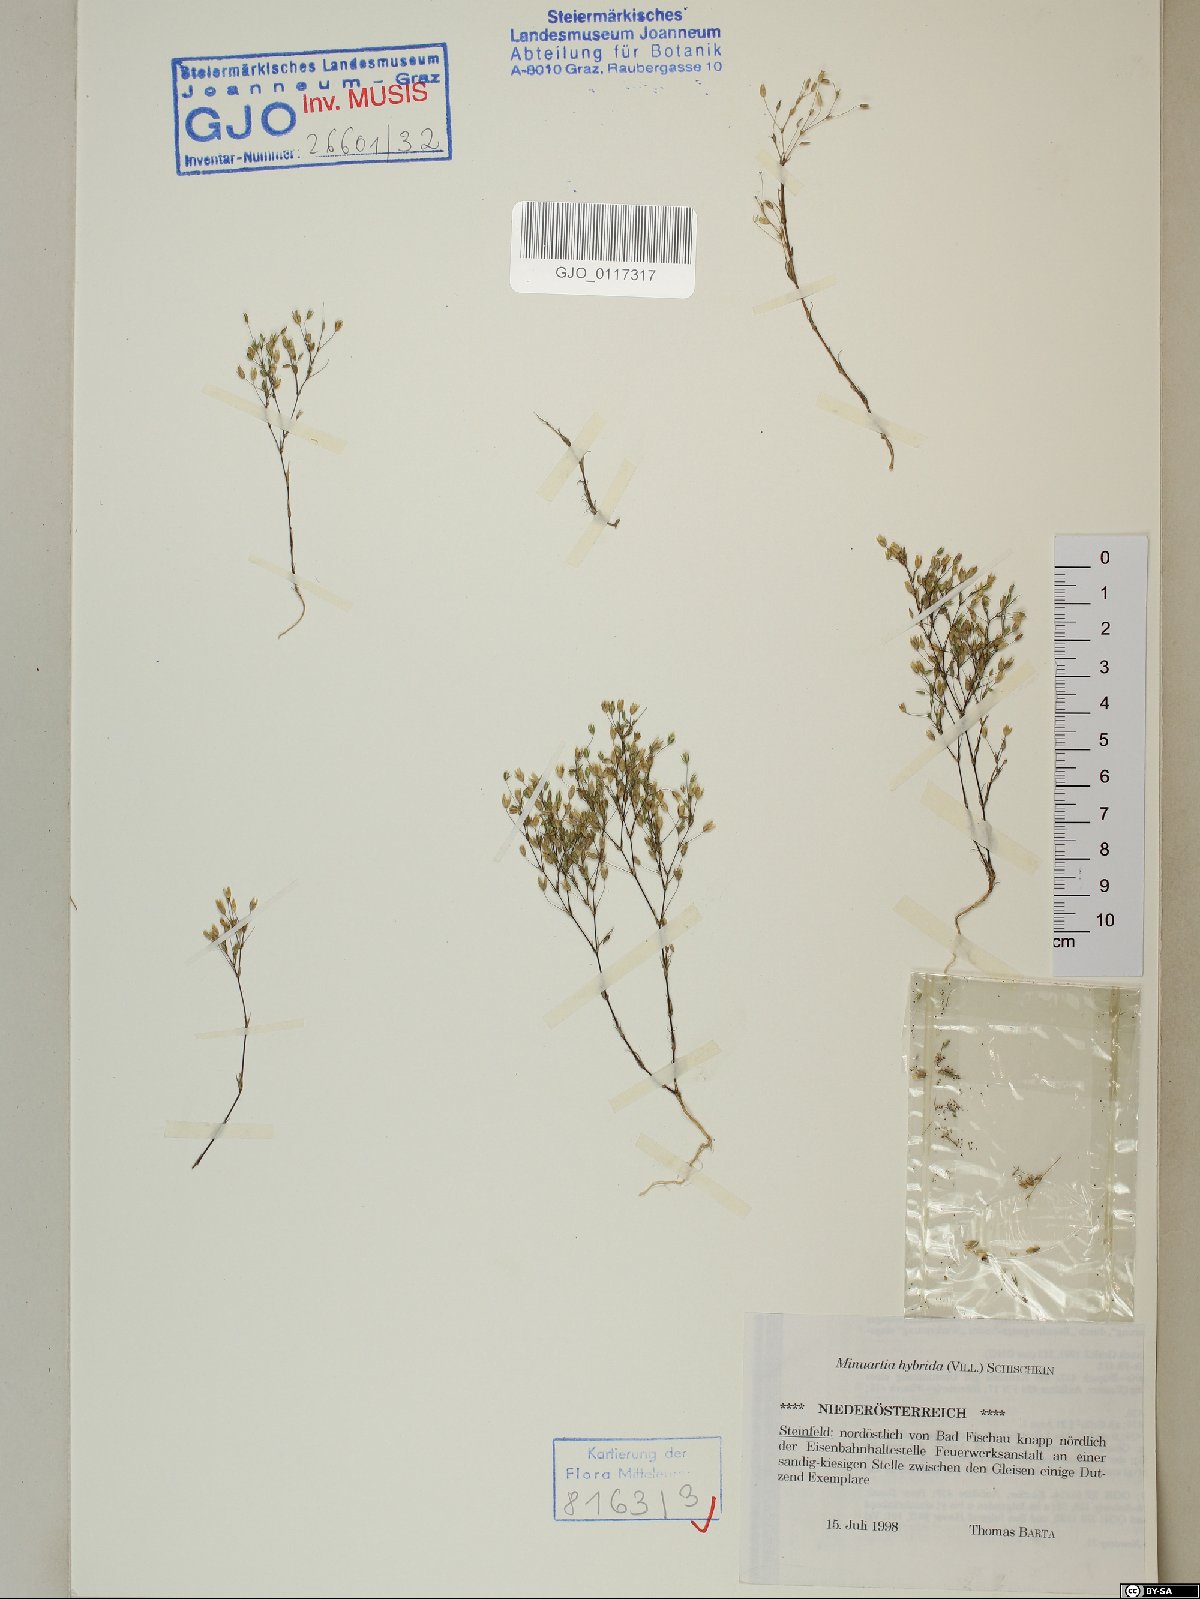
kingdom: Plantae
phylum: Tracheophyta
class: Magnoliopsida
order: Caryophyllales
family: Caryophyllaceae
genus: Sabulina
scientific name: Sabulina tenuifolia
